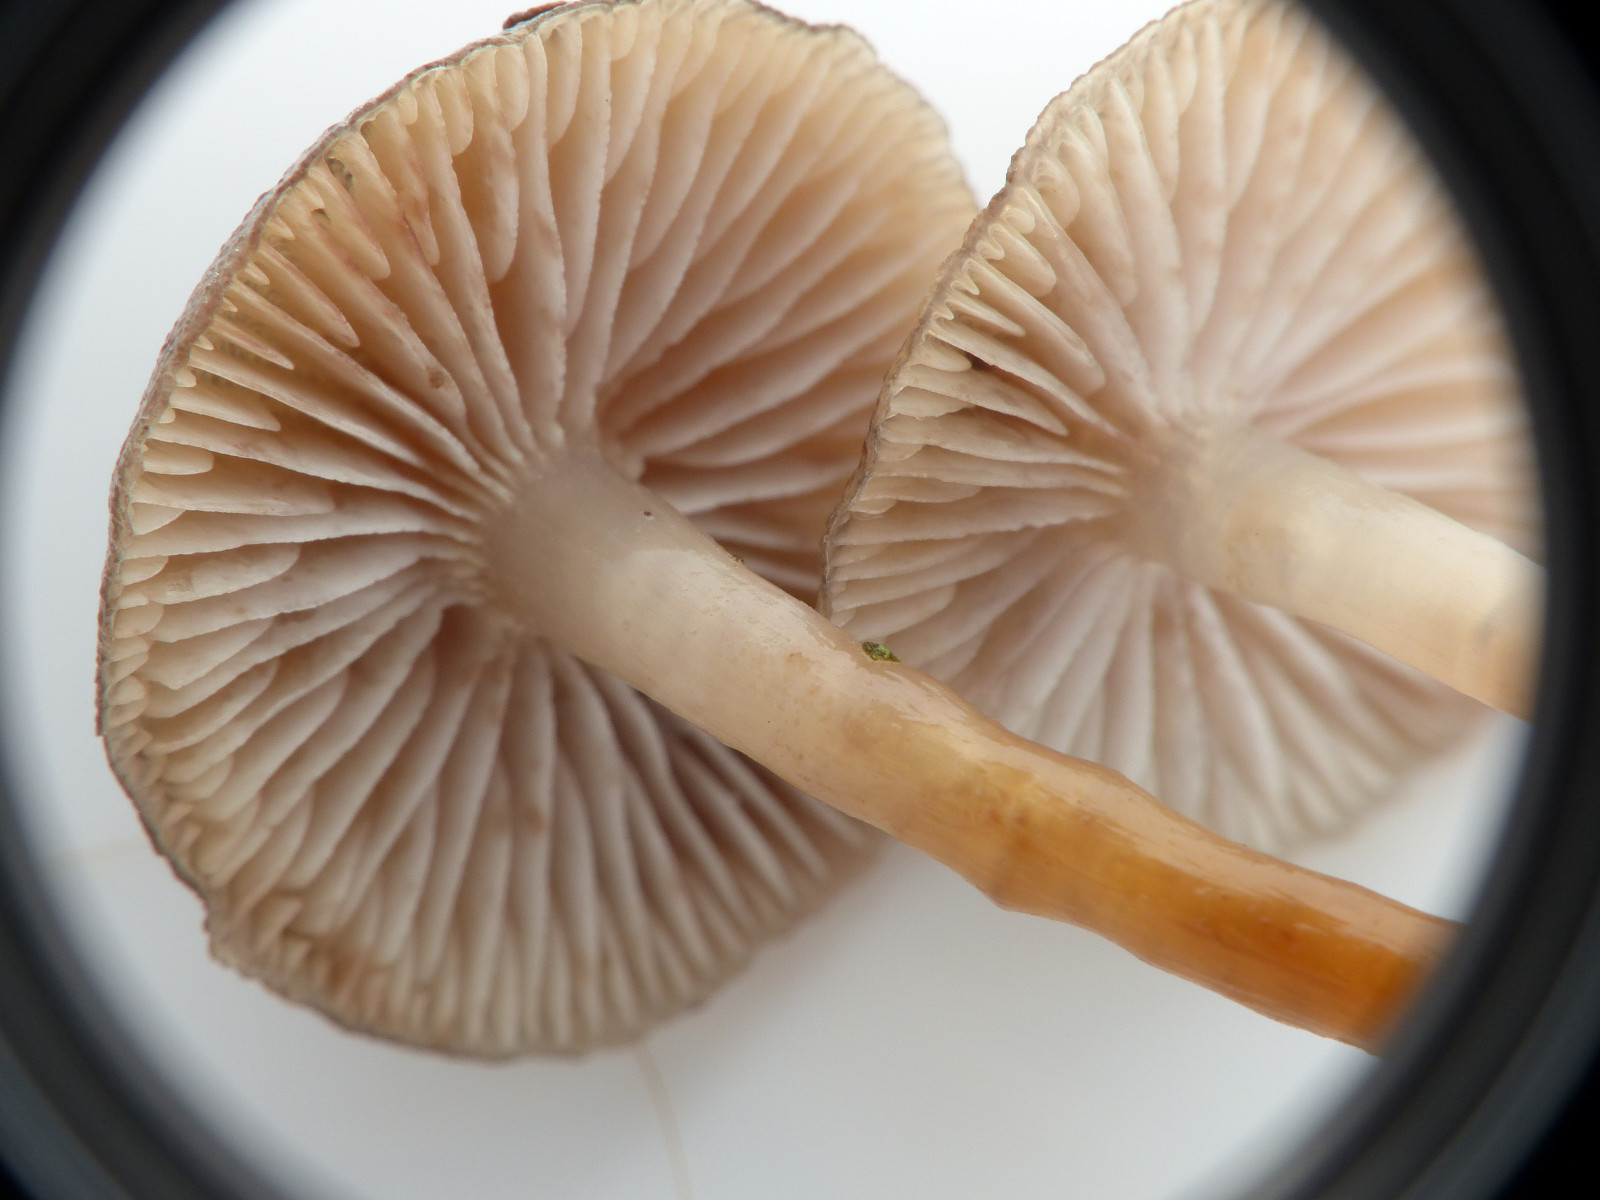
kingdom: Fungi
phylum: Basidiomycota
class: Agaricomycetes
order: Agaricales
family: Mycenaceae
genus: Mycena
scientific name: Mycena tintinnabulum
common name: vinter-huesvamp
